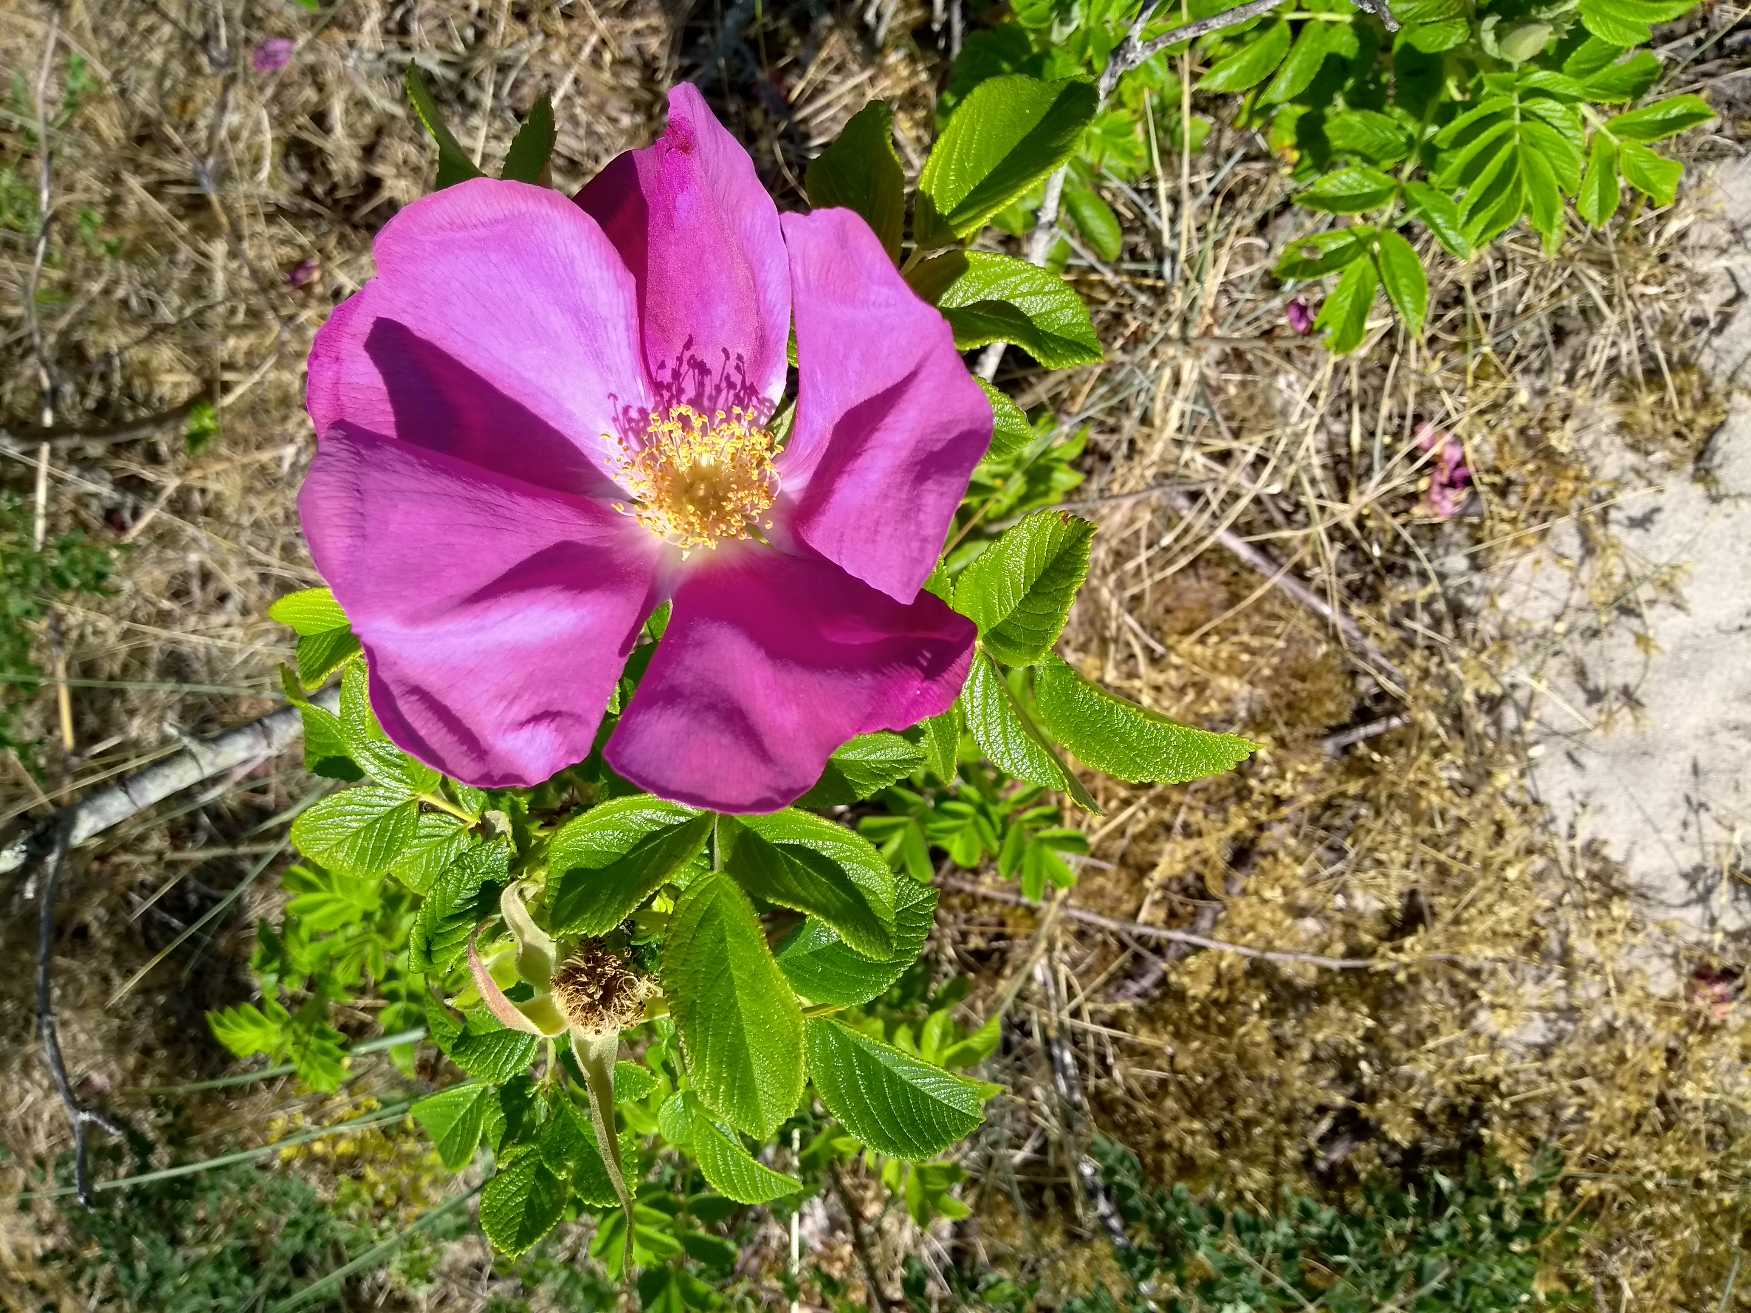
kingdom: Plantae
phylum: Tracheophyta
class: Magnoliopsida
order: Rosales
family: Rosaceae
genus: Rosa
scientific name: Rosa rugosa
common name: Rynket rose
